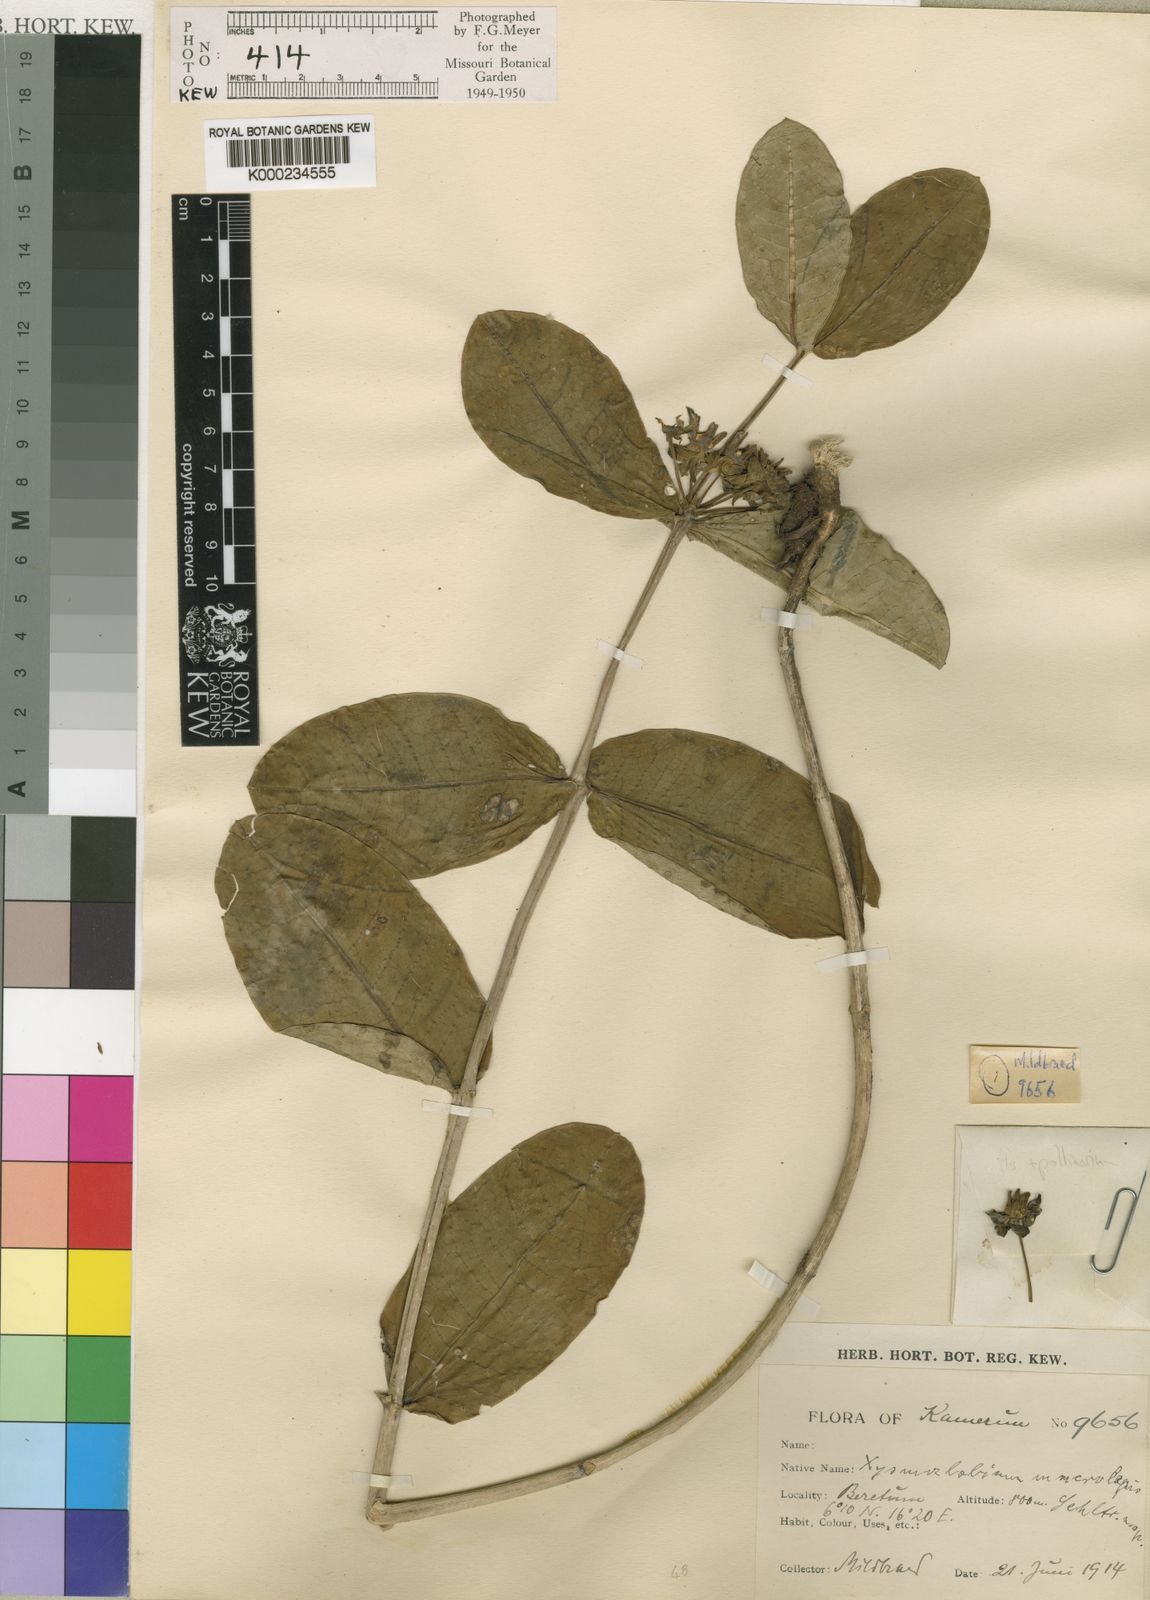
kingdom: Plantae
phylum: Tracheophyta
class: Magnoliopsida
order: Gentianales
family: Apocynaceae
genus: Xysmalobium
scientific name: Xysmalobium
